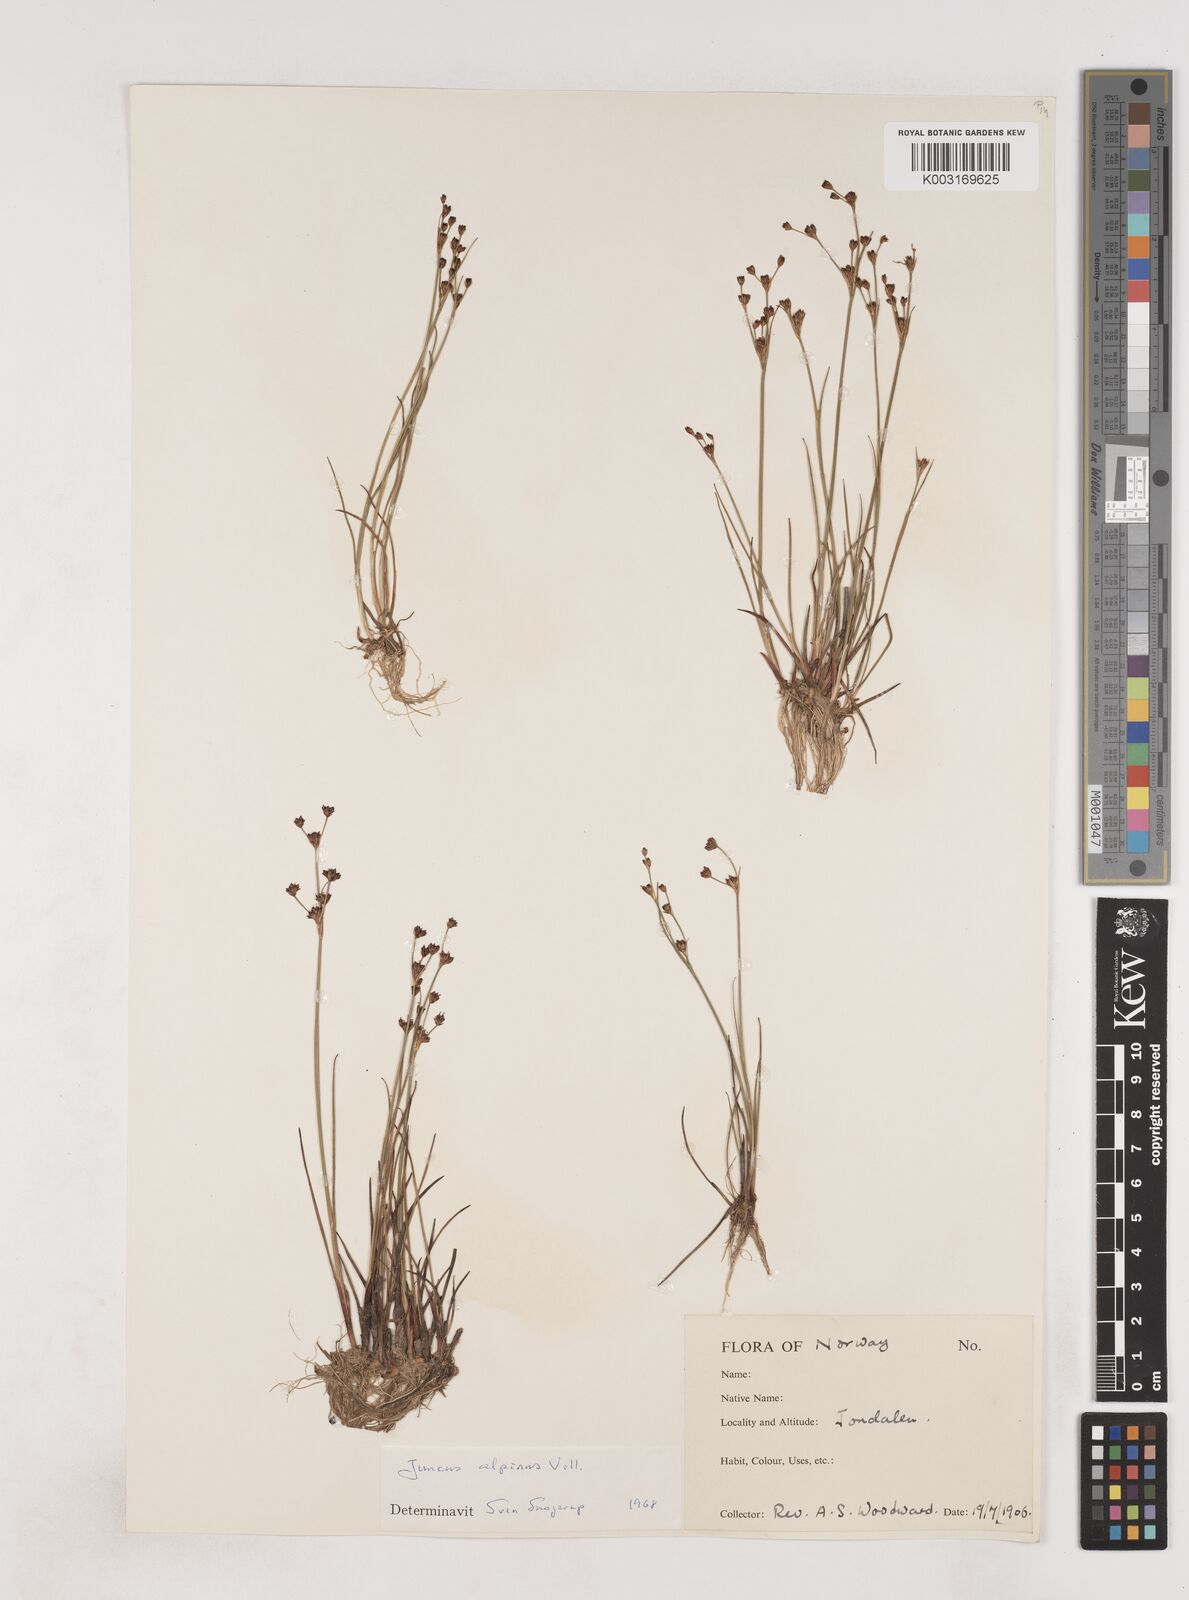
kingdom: Plantae
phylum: Tracheophyta
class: Liliopsida
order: Poales
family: Juncaceae
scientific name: Juncaceae
